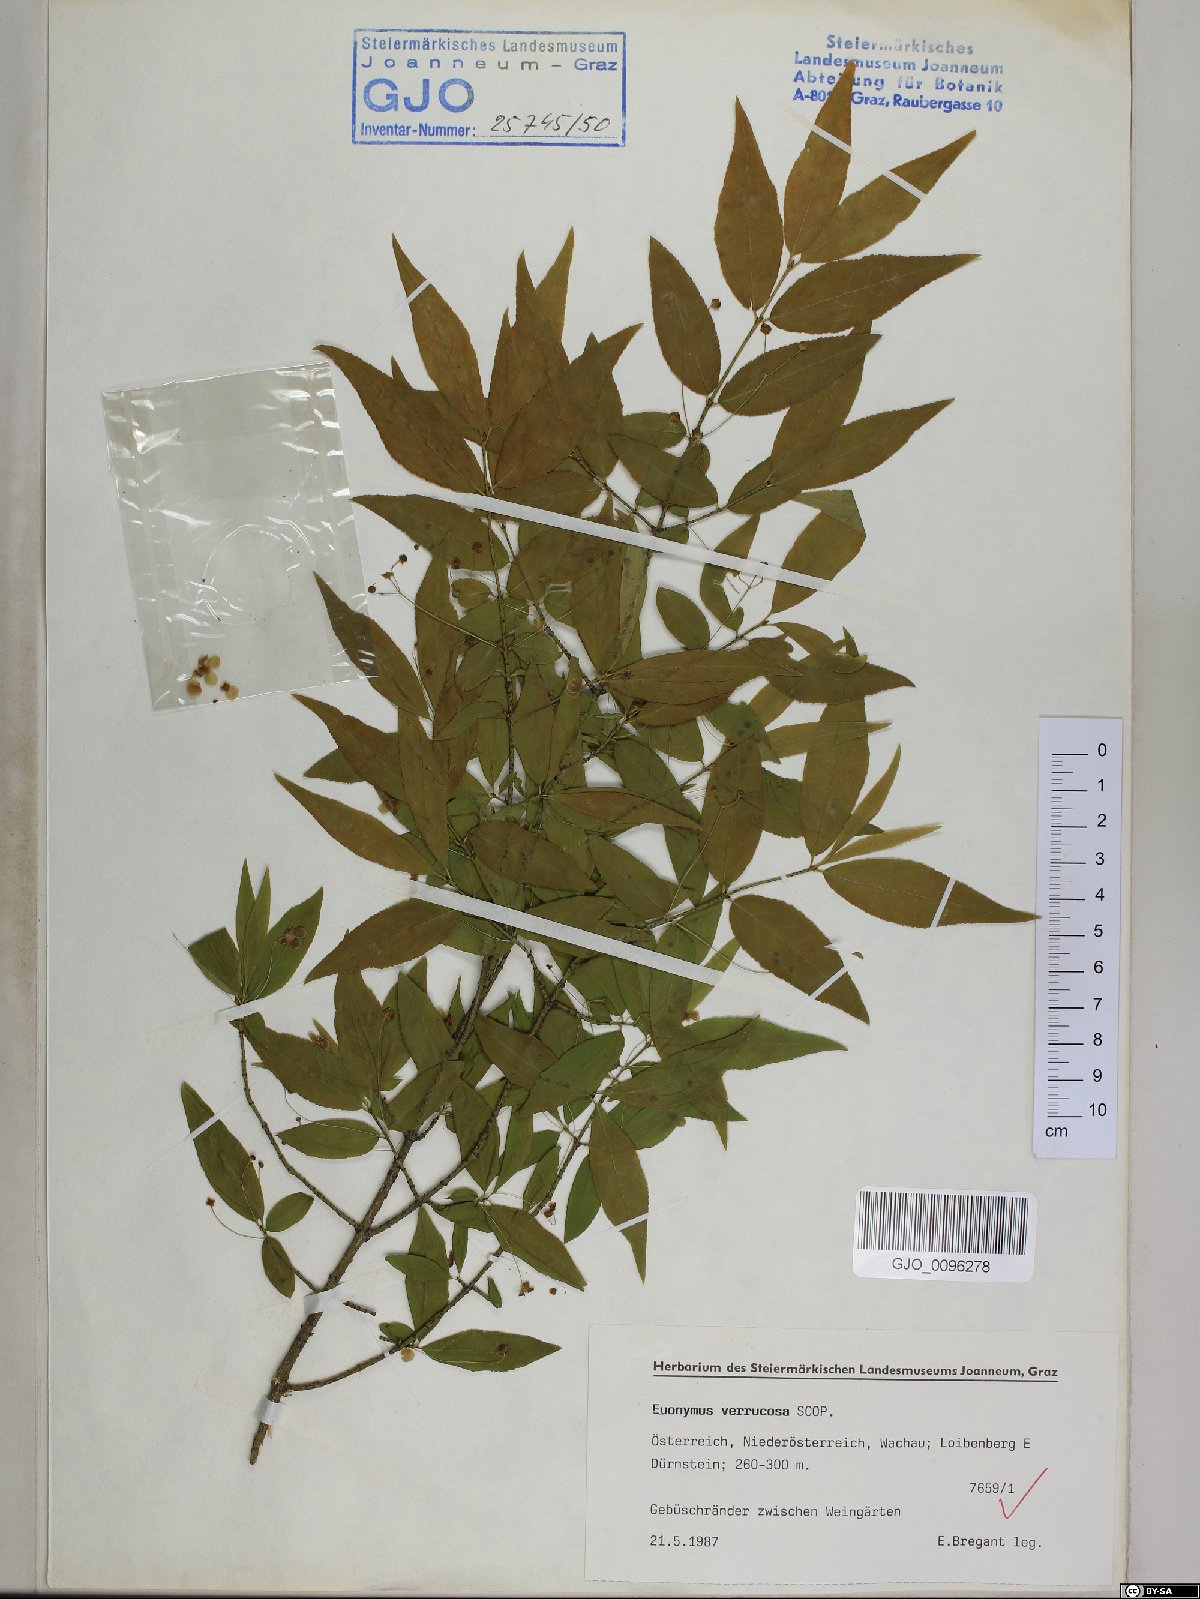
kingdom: Plantae
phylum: Tracheophyta
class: Magnoliopsida
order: Celastrales
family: Celastraceae
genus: Euonymus
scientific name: Euonymus verrucosus
